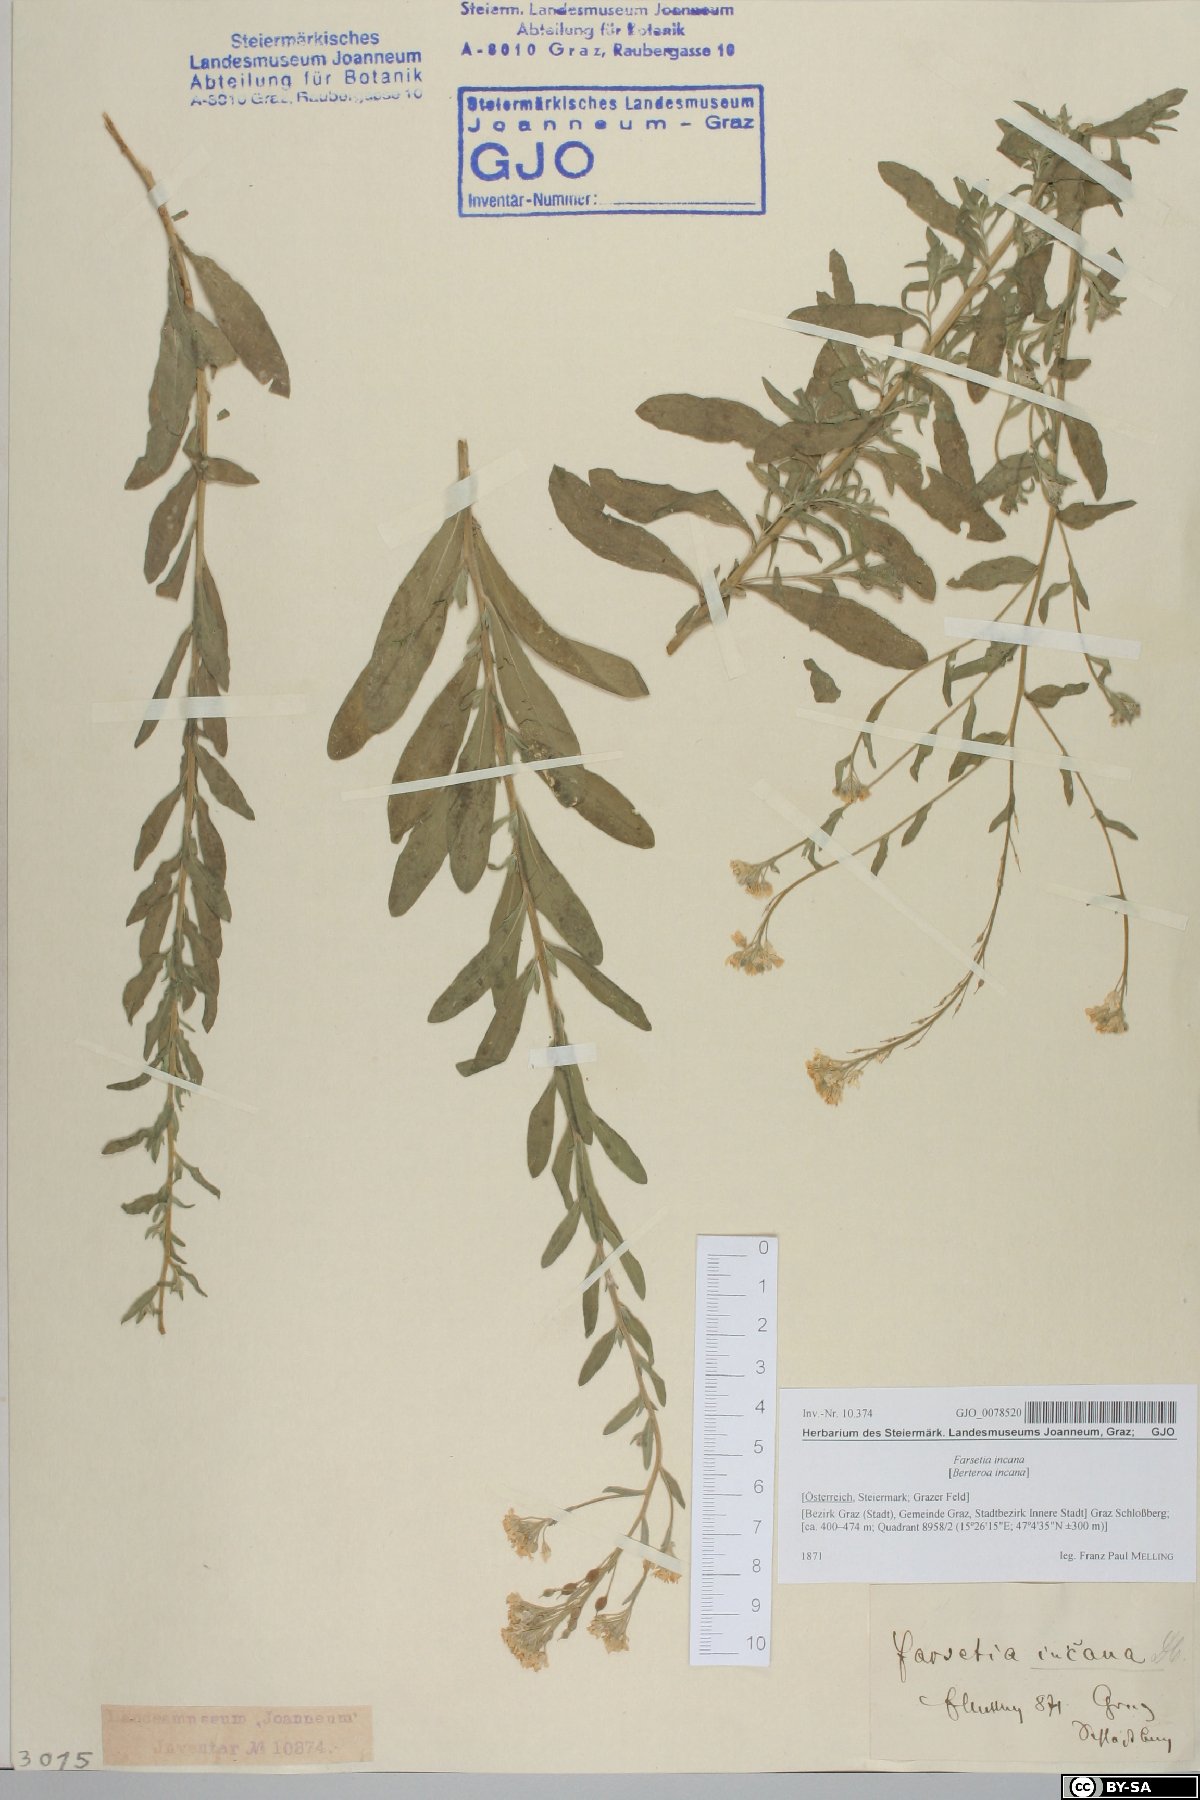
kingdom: Plantae
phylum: Tracheophyta
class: Magnoliopsida
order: Brassicales
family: Brassicaceae
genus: Berteroa
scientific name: Berteroa incana
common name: Hoary alison
